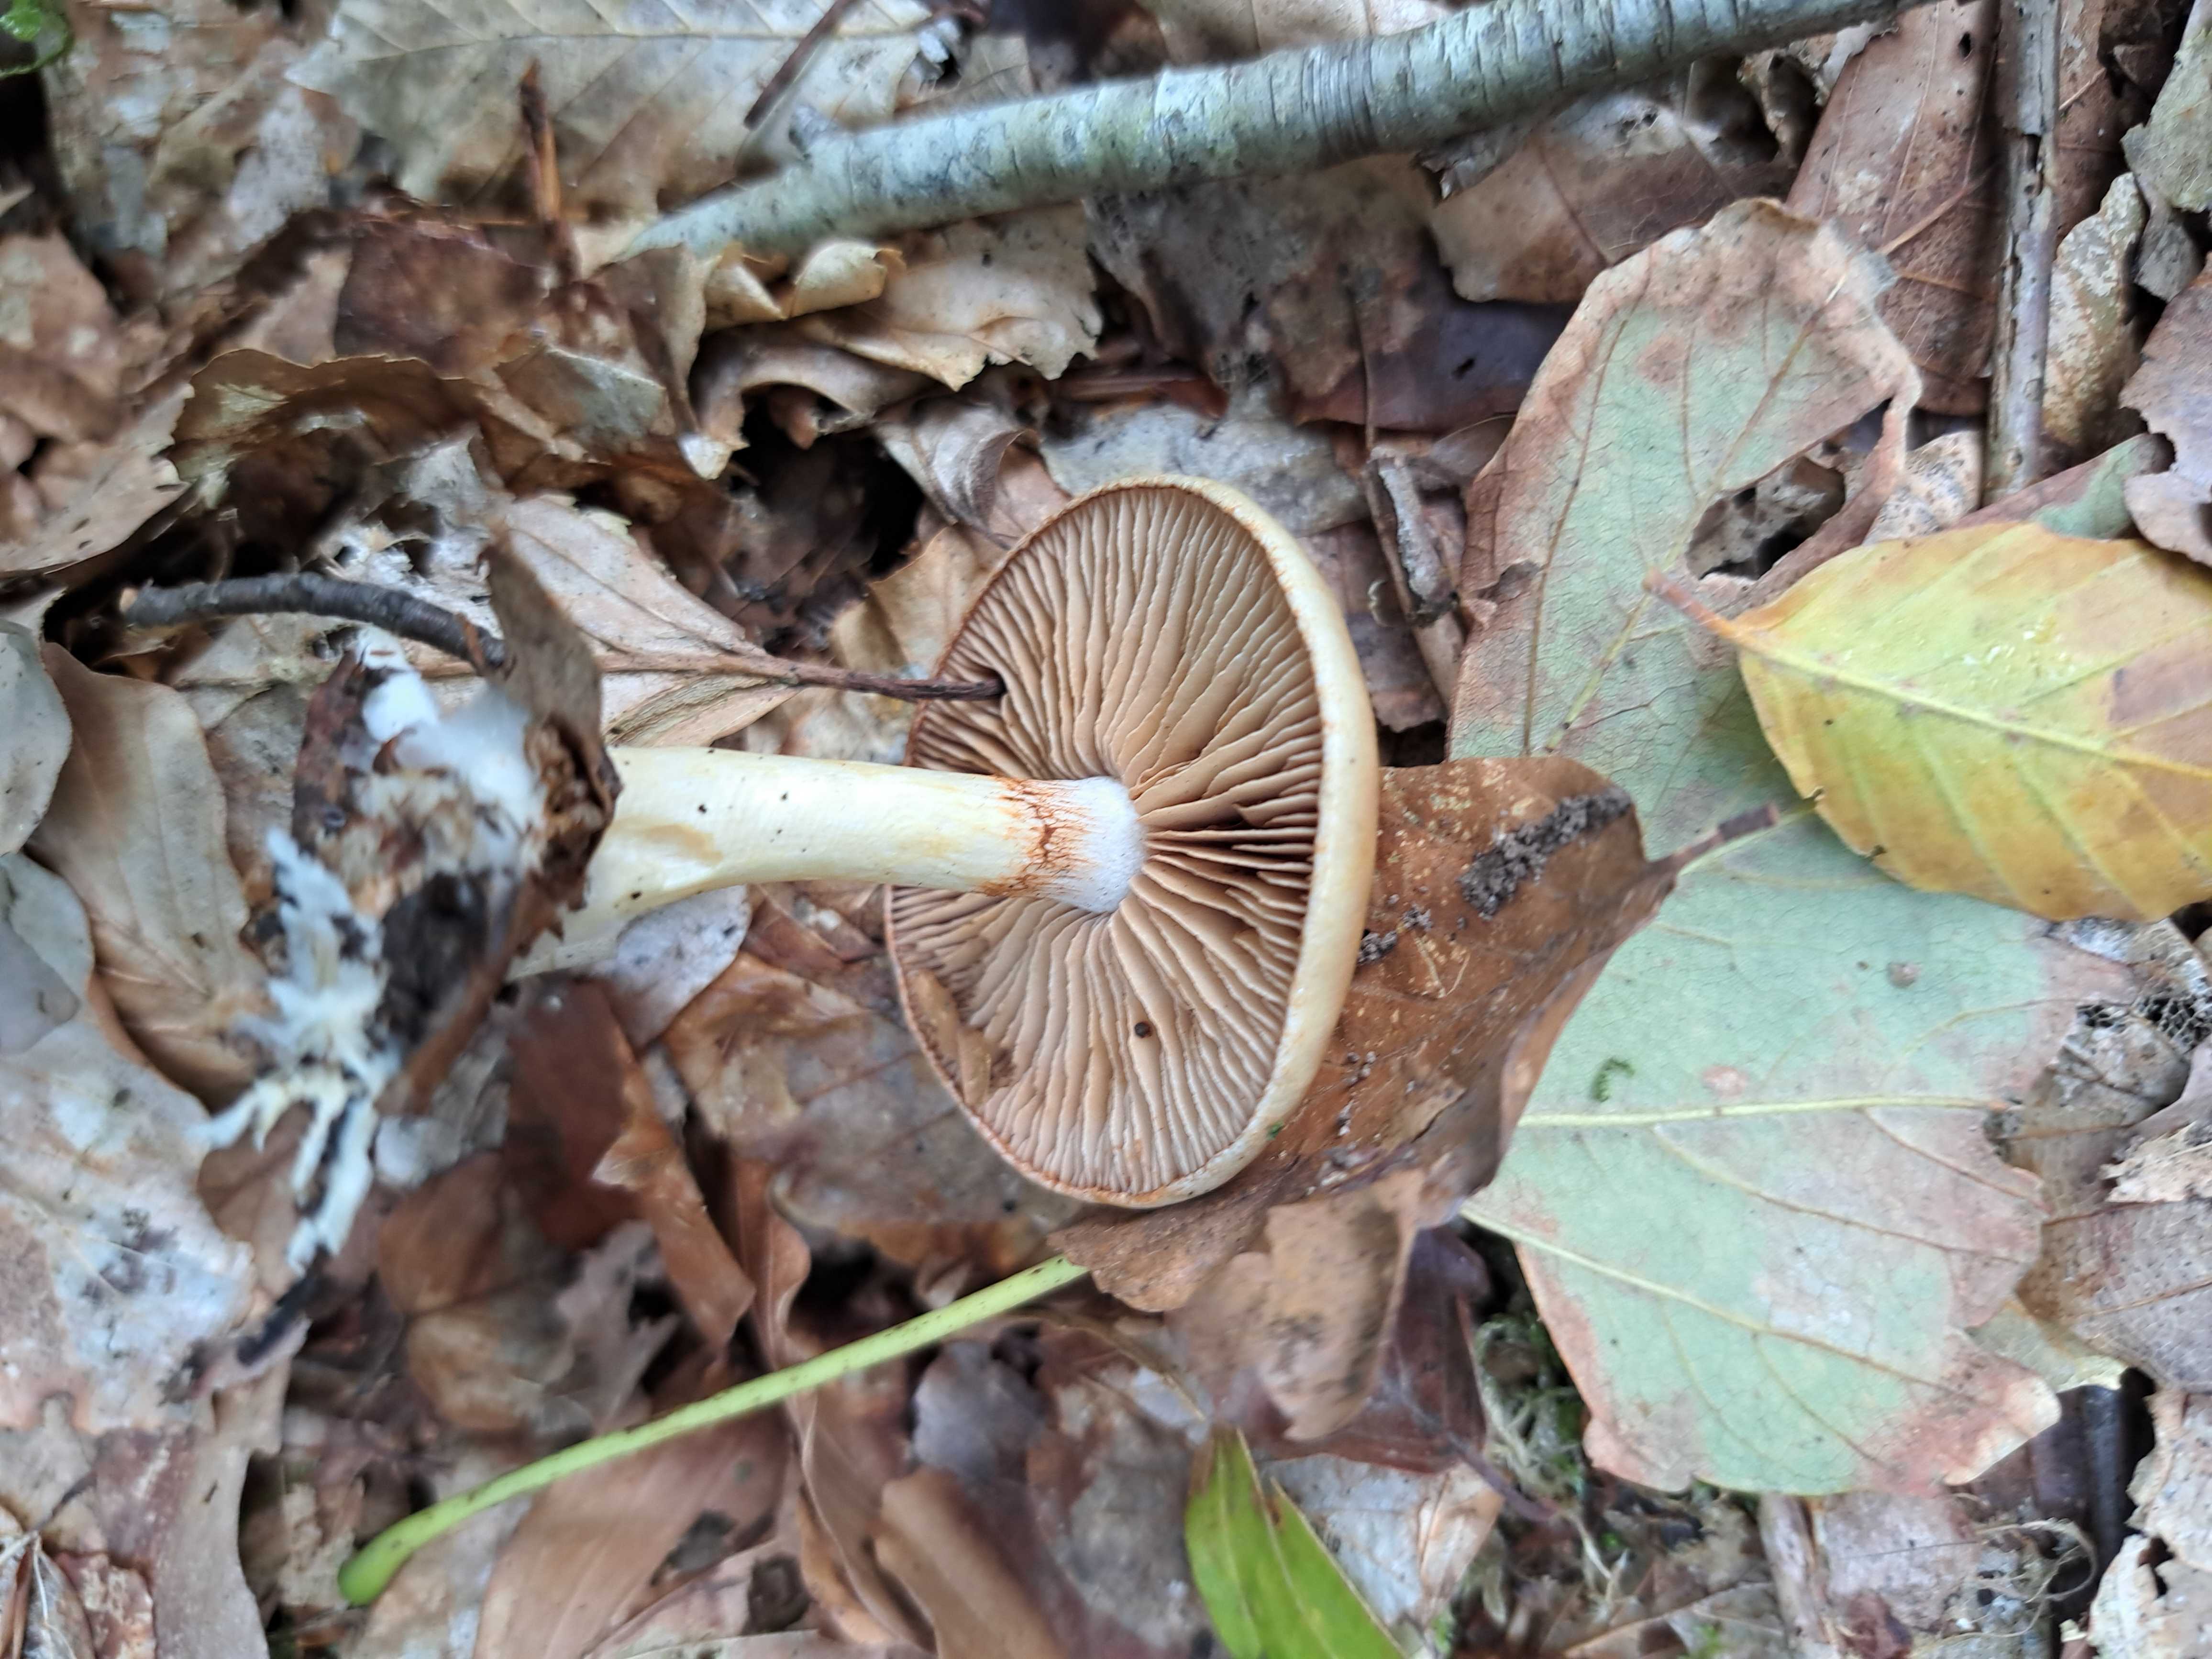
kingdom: Fungi
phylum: Basidiomycota
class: Agaricomycetes
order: Agaricales
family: Cortinariaceae
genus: Cortinarius
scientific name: Cortinarius
